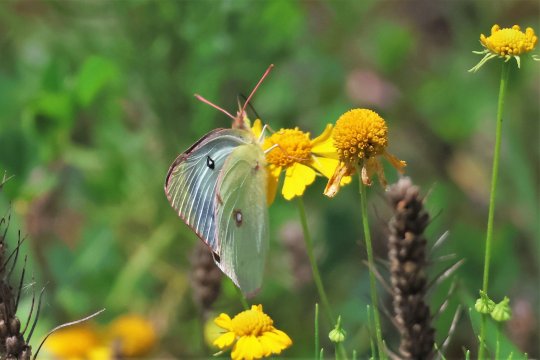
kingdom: Animalia
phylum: Arthropoda
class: Insecta
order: Lepidoptera
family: Pieridae
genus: Colias
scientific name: Colias eurytheme
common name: Orange Sulphur
